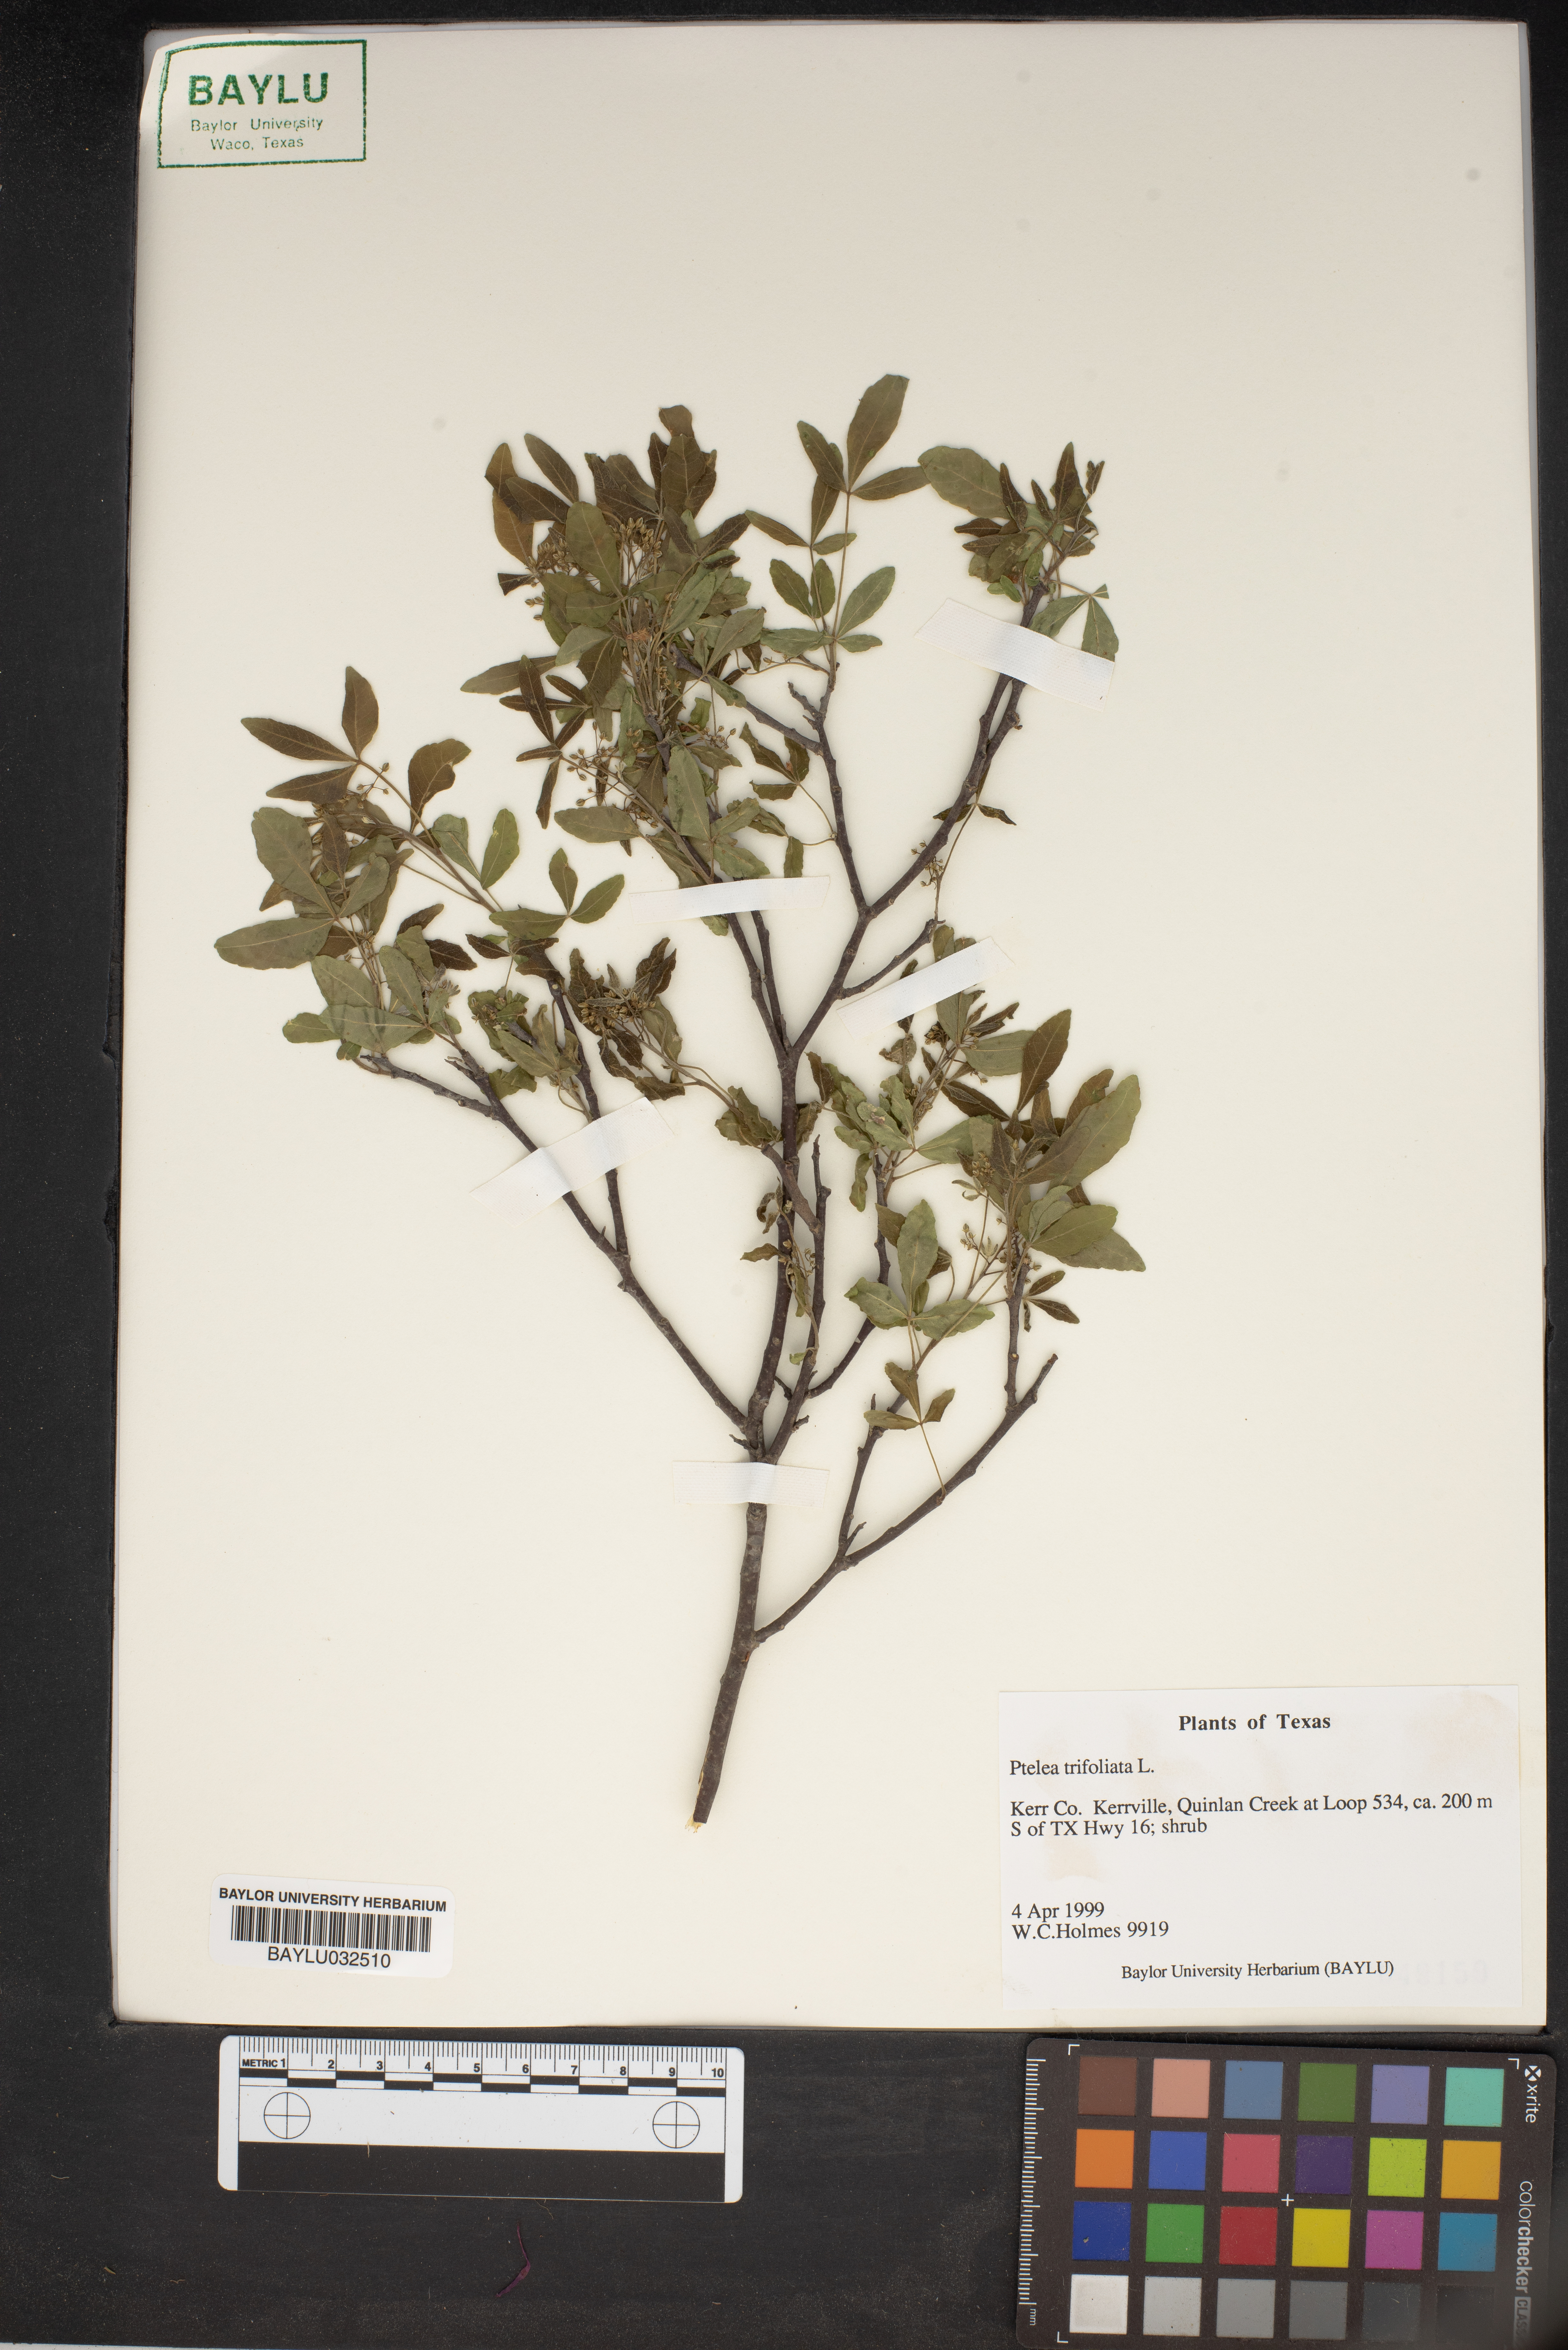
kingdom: Plantae
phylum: Tracheophyta
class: Magnoliopsida
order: Sapindales
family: Rutaceae
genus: Ptelea
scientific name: Ptelea trifoliata
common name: Common hop-tree
